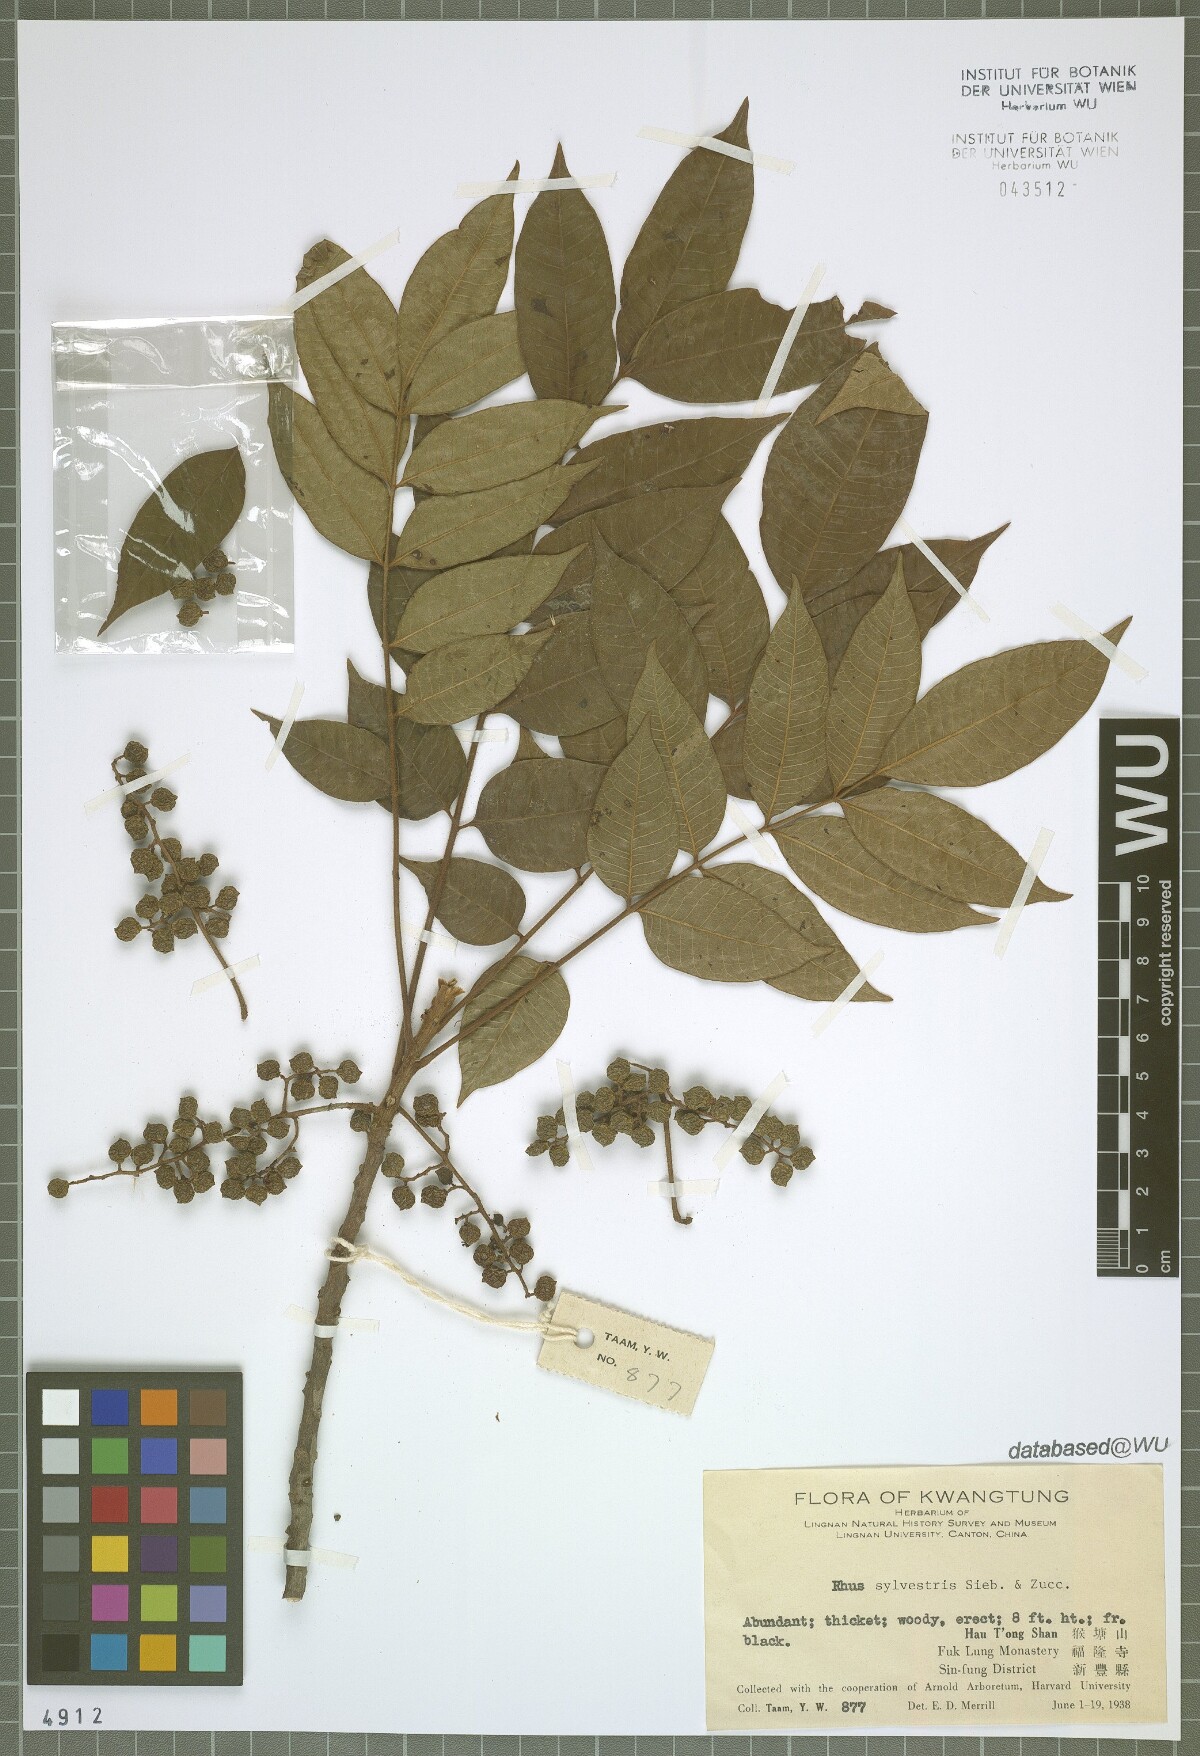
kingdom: Plantae
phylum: Tracheophyta
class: Magnoliopsida
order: Sapindales
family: Anacardiaceae
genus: Toxicodendron
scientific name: Toxicodendron sylvestre
